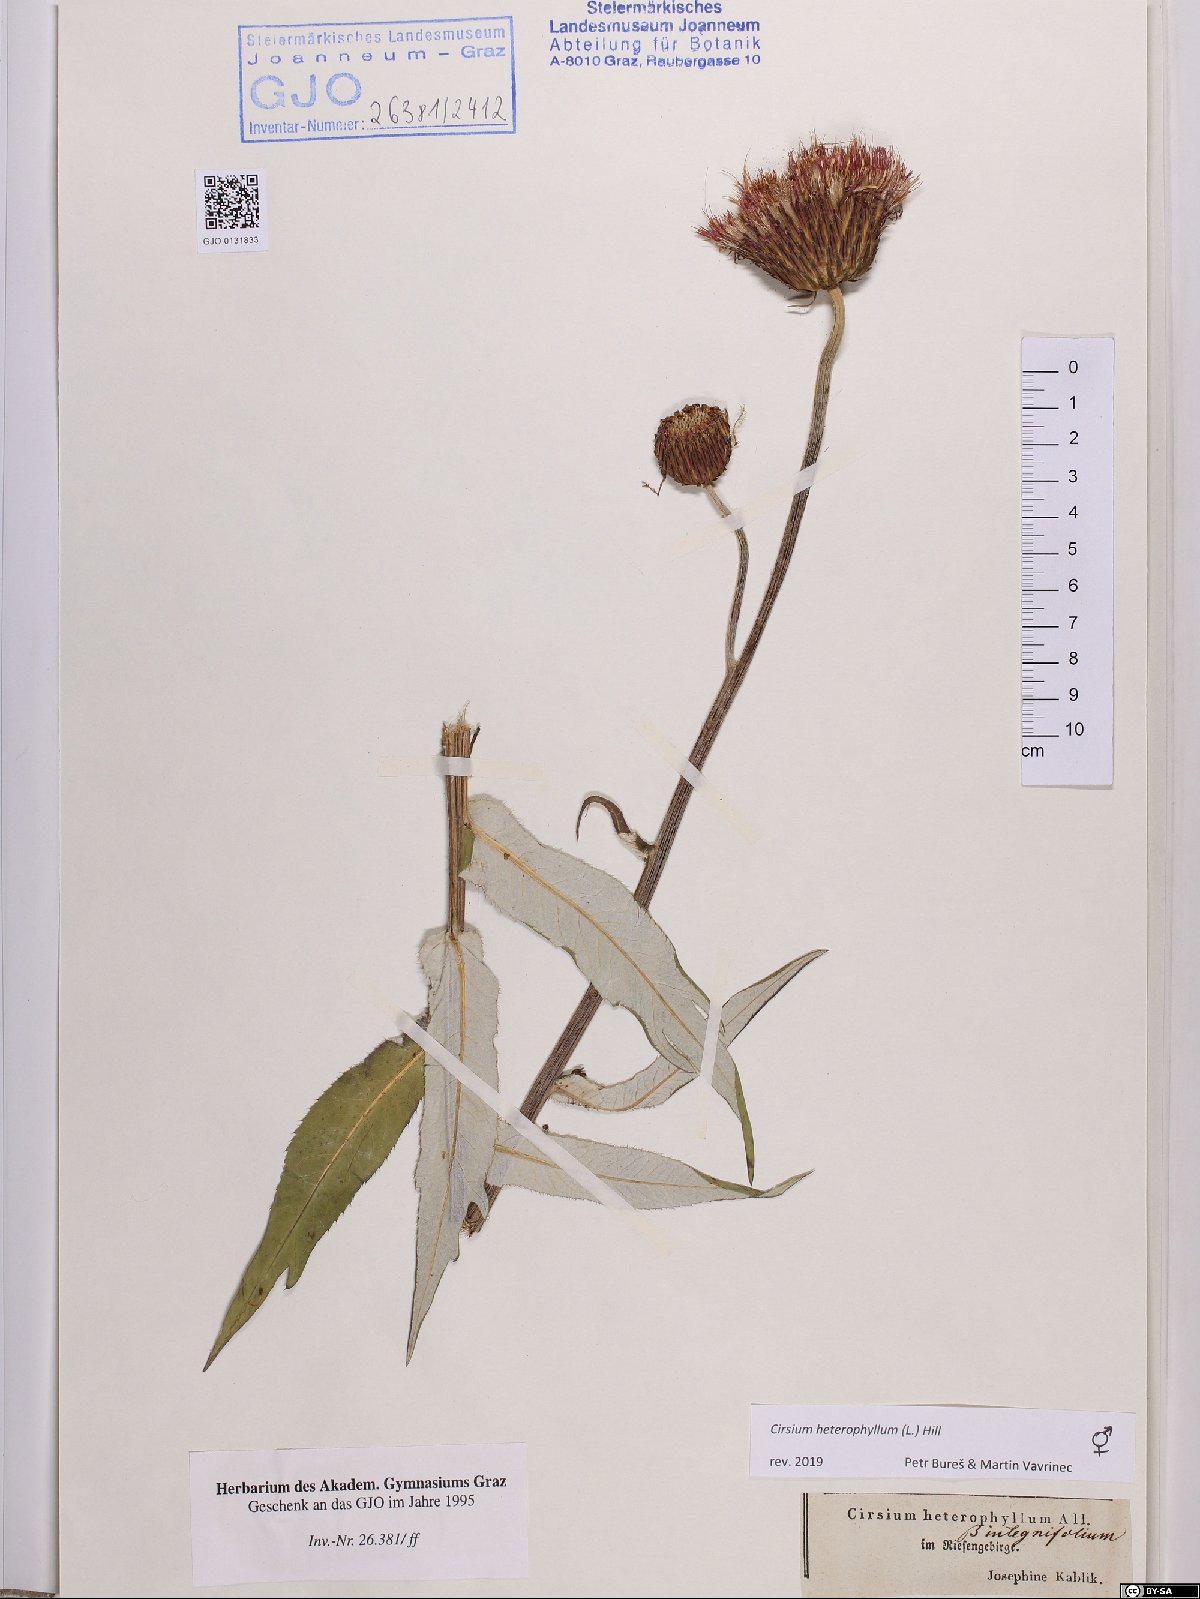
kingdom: Plantae
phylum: Tracheophyta
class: Magnoliopsida
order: Asterales
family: Asteraceae
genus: Cirsium
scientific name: Cirsium heterophyllum
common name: Melancholy thistle
